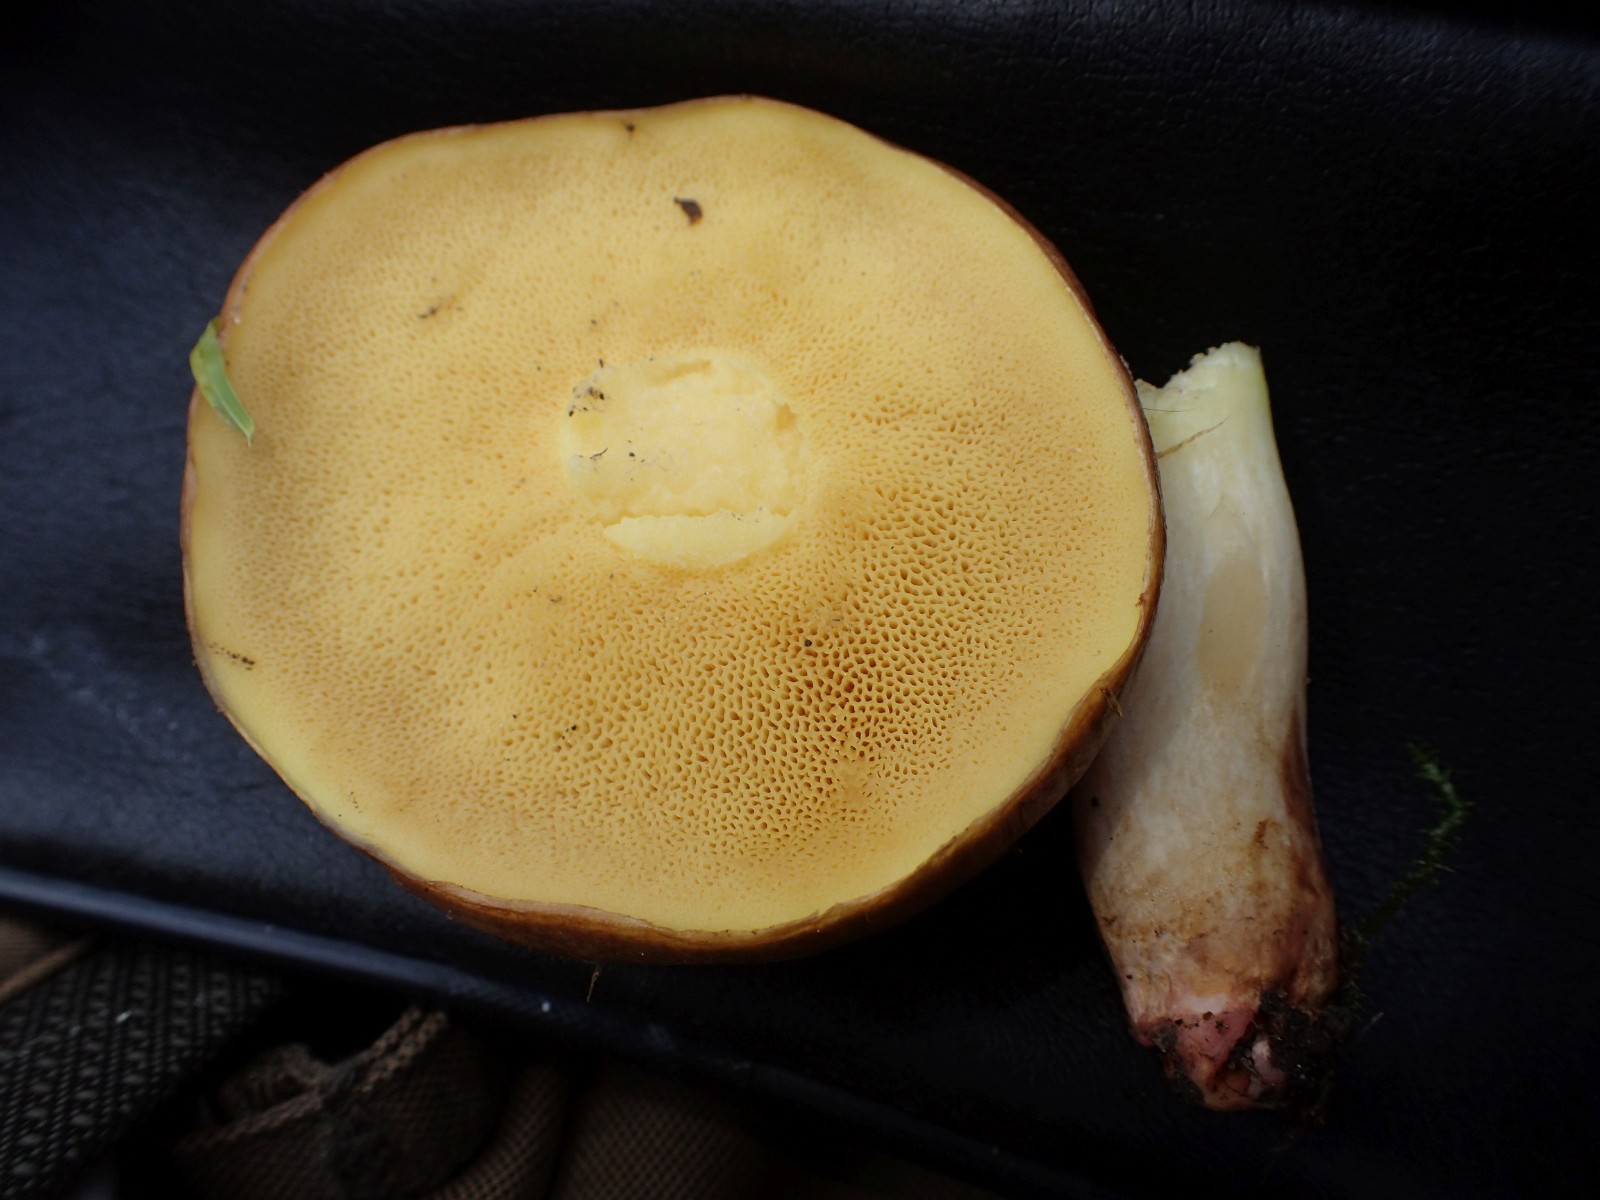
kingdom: Fungi
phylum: Basidiomycota
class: Agaricomycetes
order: Boletales
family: Suillaceae
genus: Suillus
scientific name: Suillus collinitus
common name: rosafodet slimrørhat
